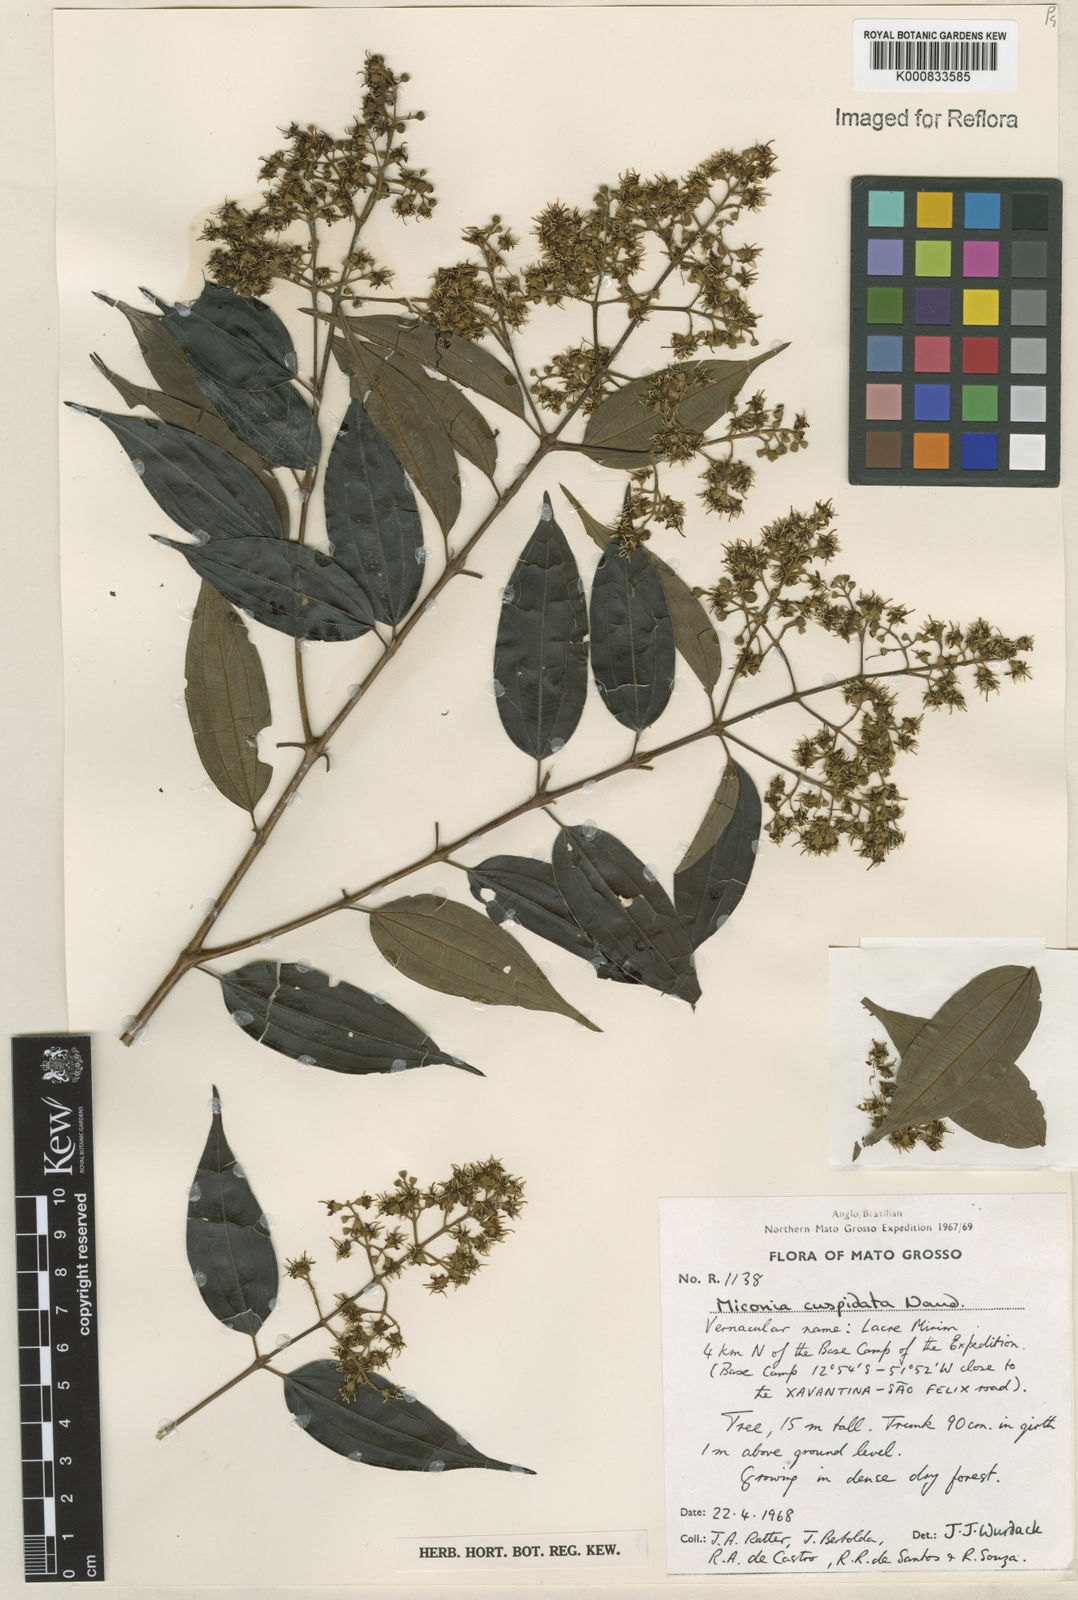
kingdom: Plantae
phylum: Tracheophyta
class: Magnoliopsida
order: Myrtales
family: Melastomataceae
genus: Miconia
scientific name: Miconia cuspidata
